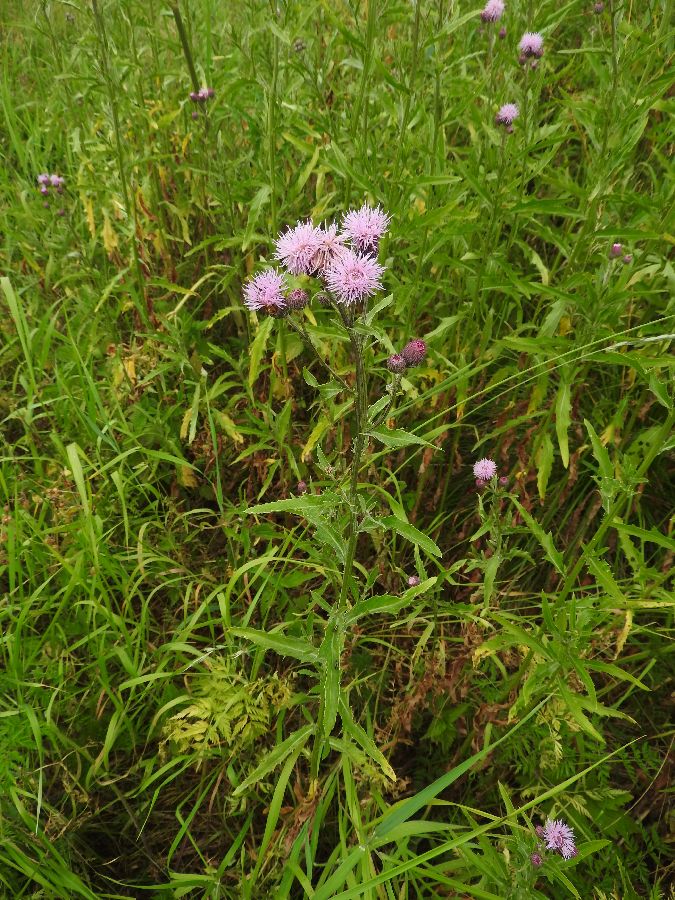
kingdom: Plantae
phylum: Tracheophyta
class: Magnoliopsida
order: Asterales
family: Asteraceae
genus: Cirsium
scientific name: Cirsium arvense
